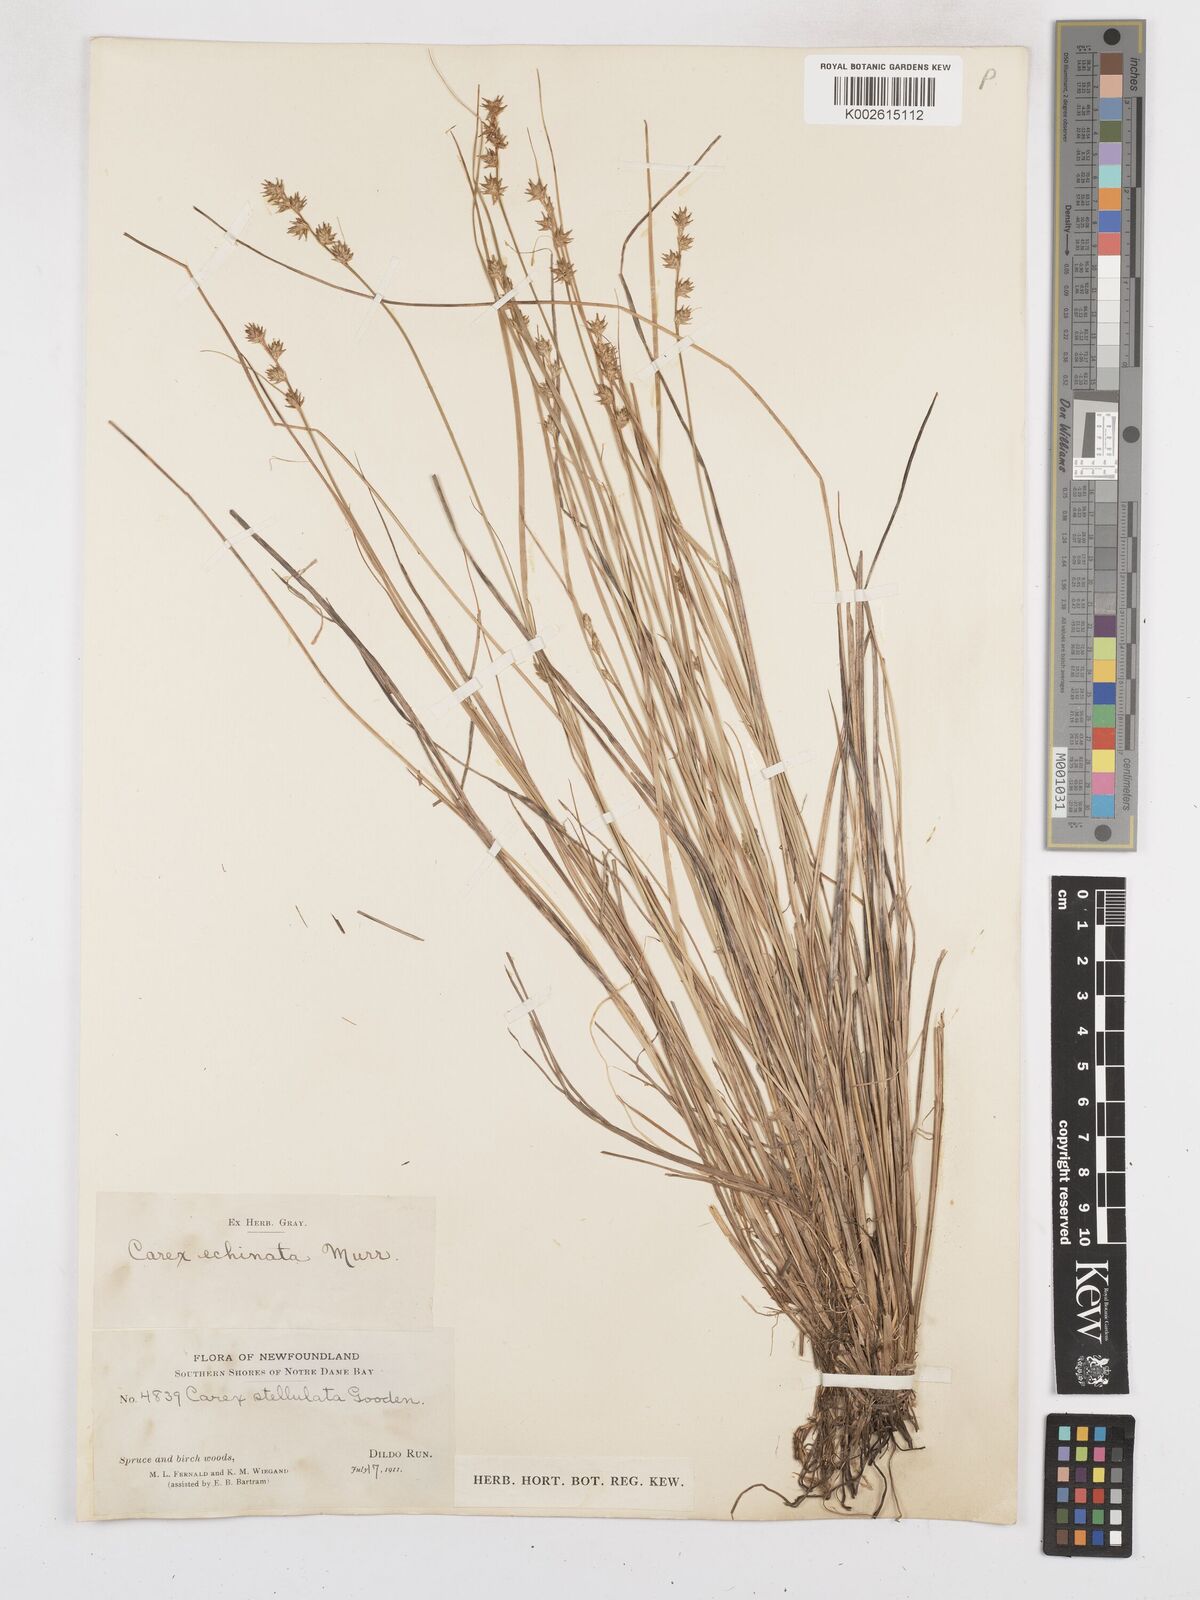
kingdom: Plantae
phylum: Tracheophyta
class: Liliopsida
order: Poales
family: Cyperaceae
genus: Carex
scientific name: Carex echinata
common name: Star sedge
